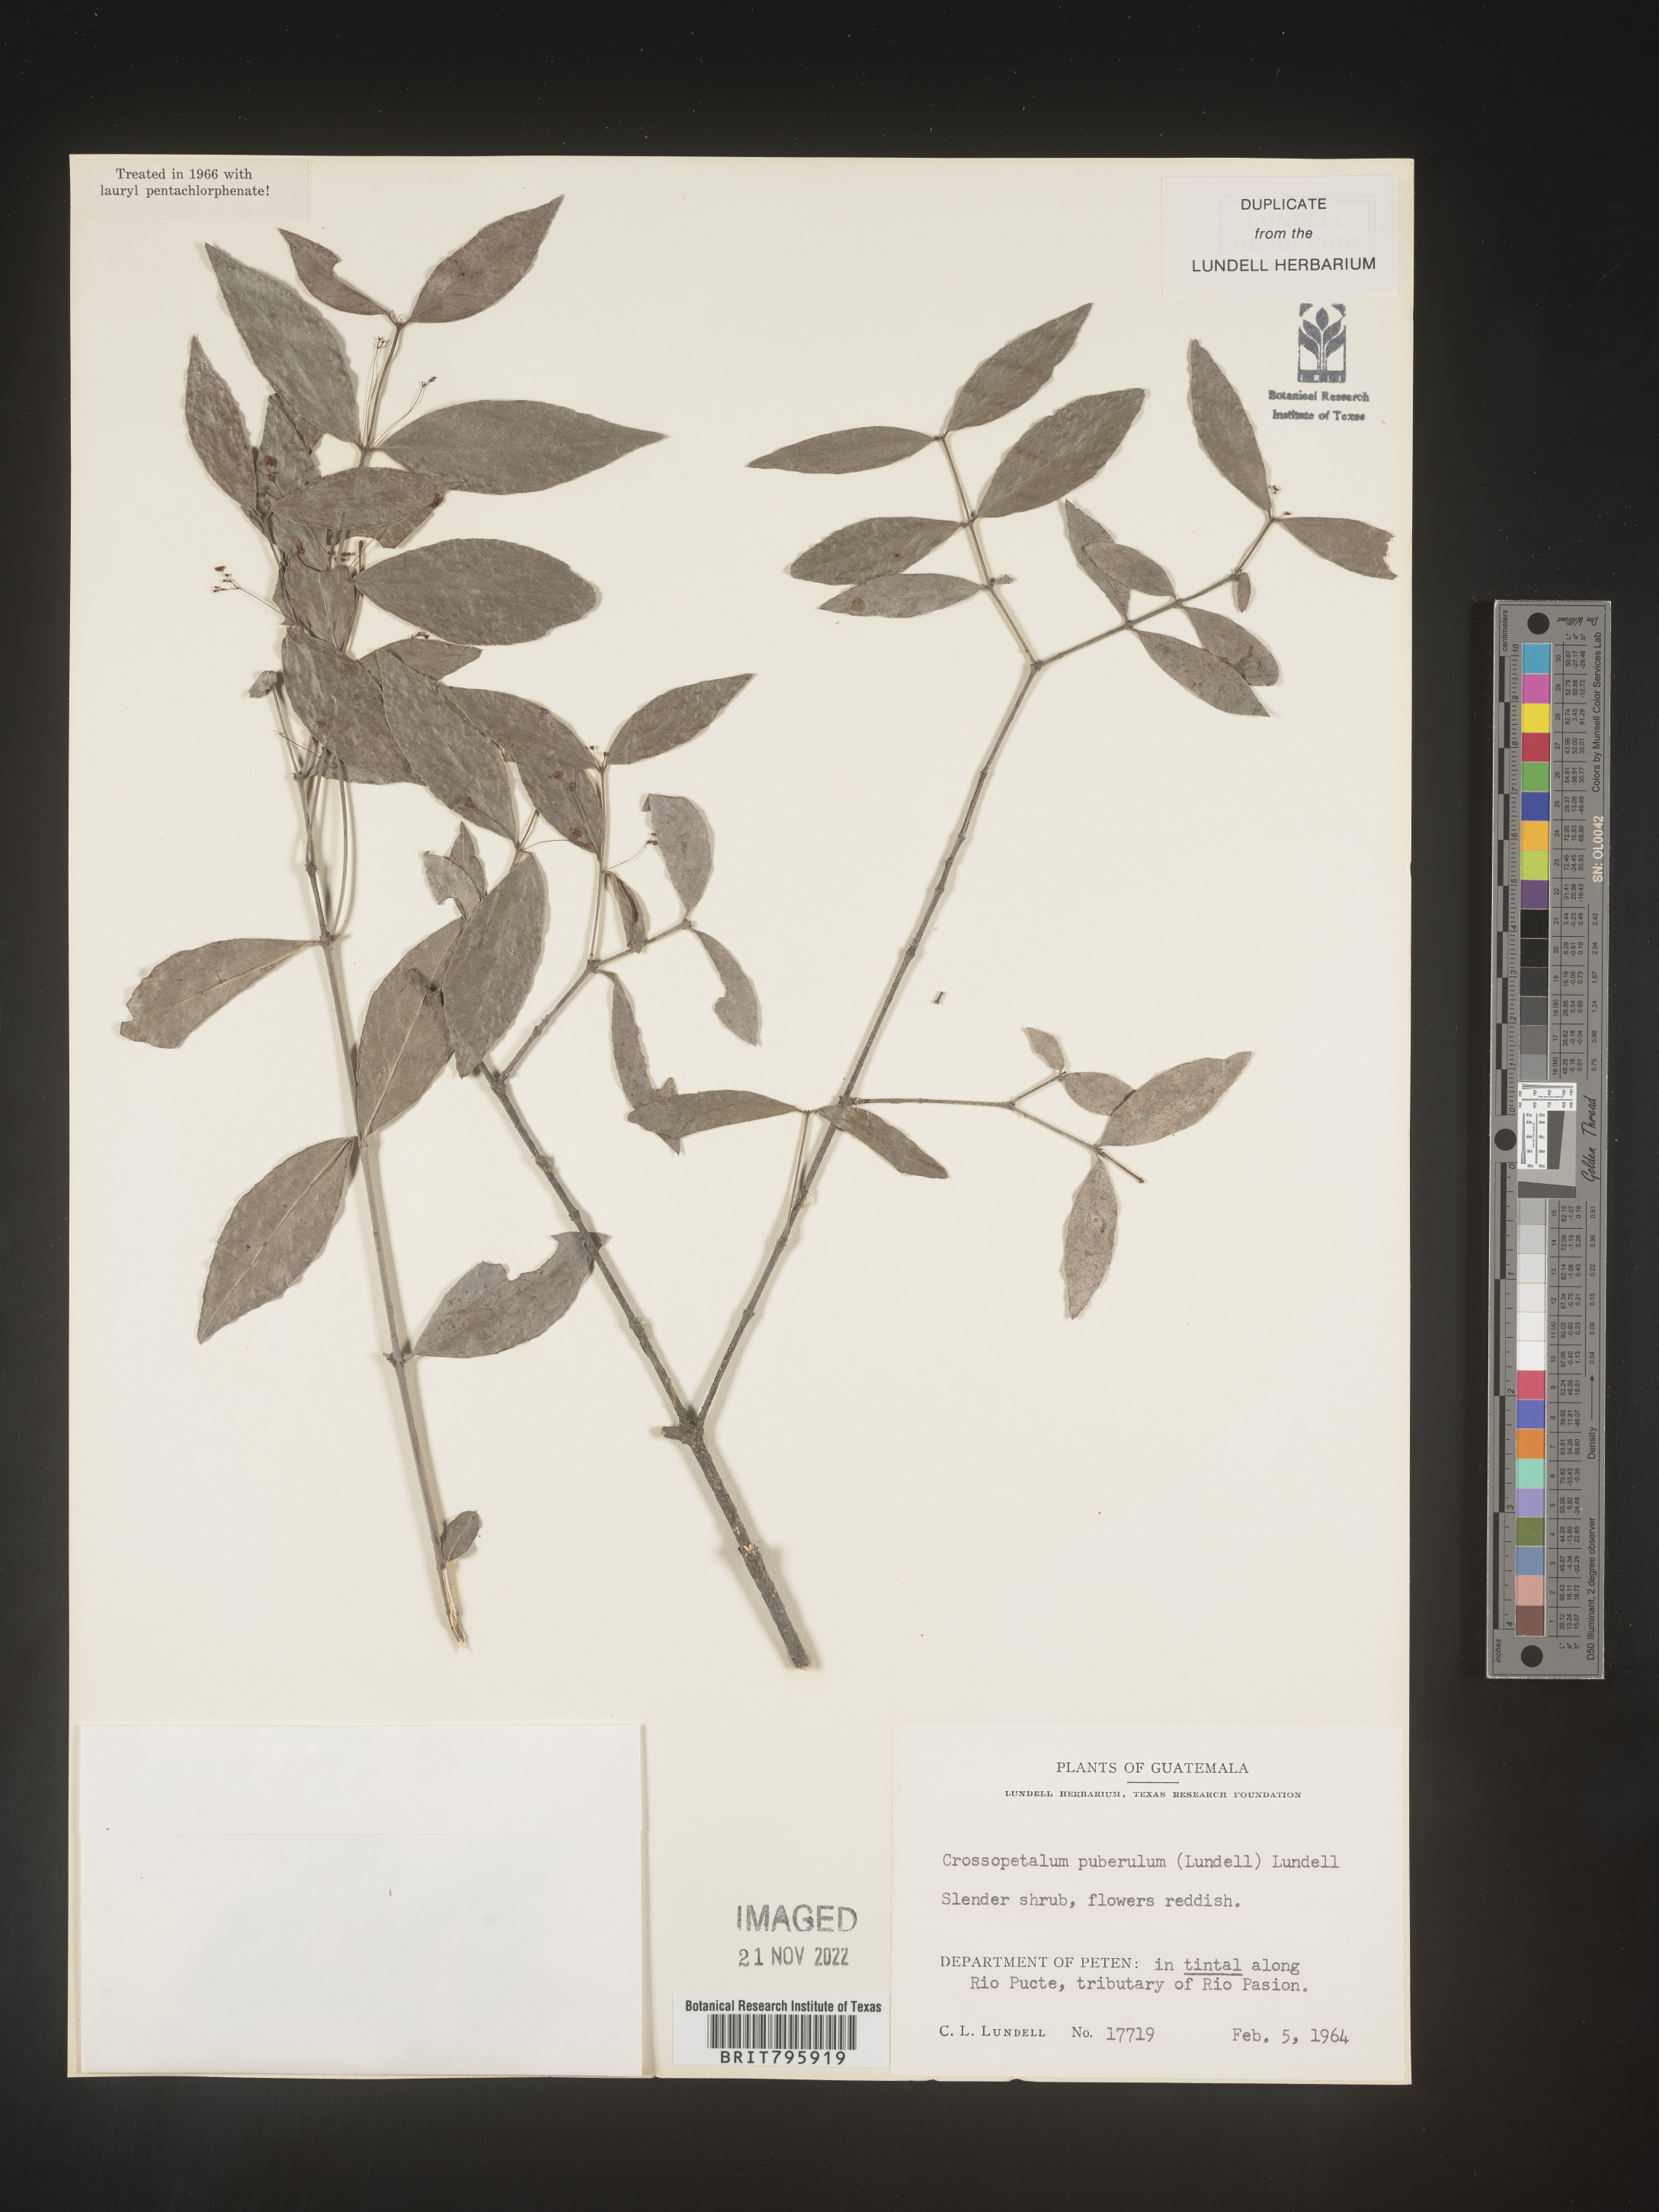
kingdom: Plantae
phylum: Tracheophyta
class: Magnoliopsida
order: Celastrales
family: Celastraceae
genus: Crossopetalum
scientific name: Crossopetalum
